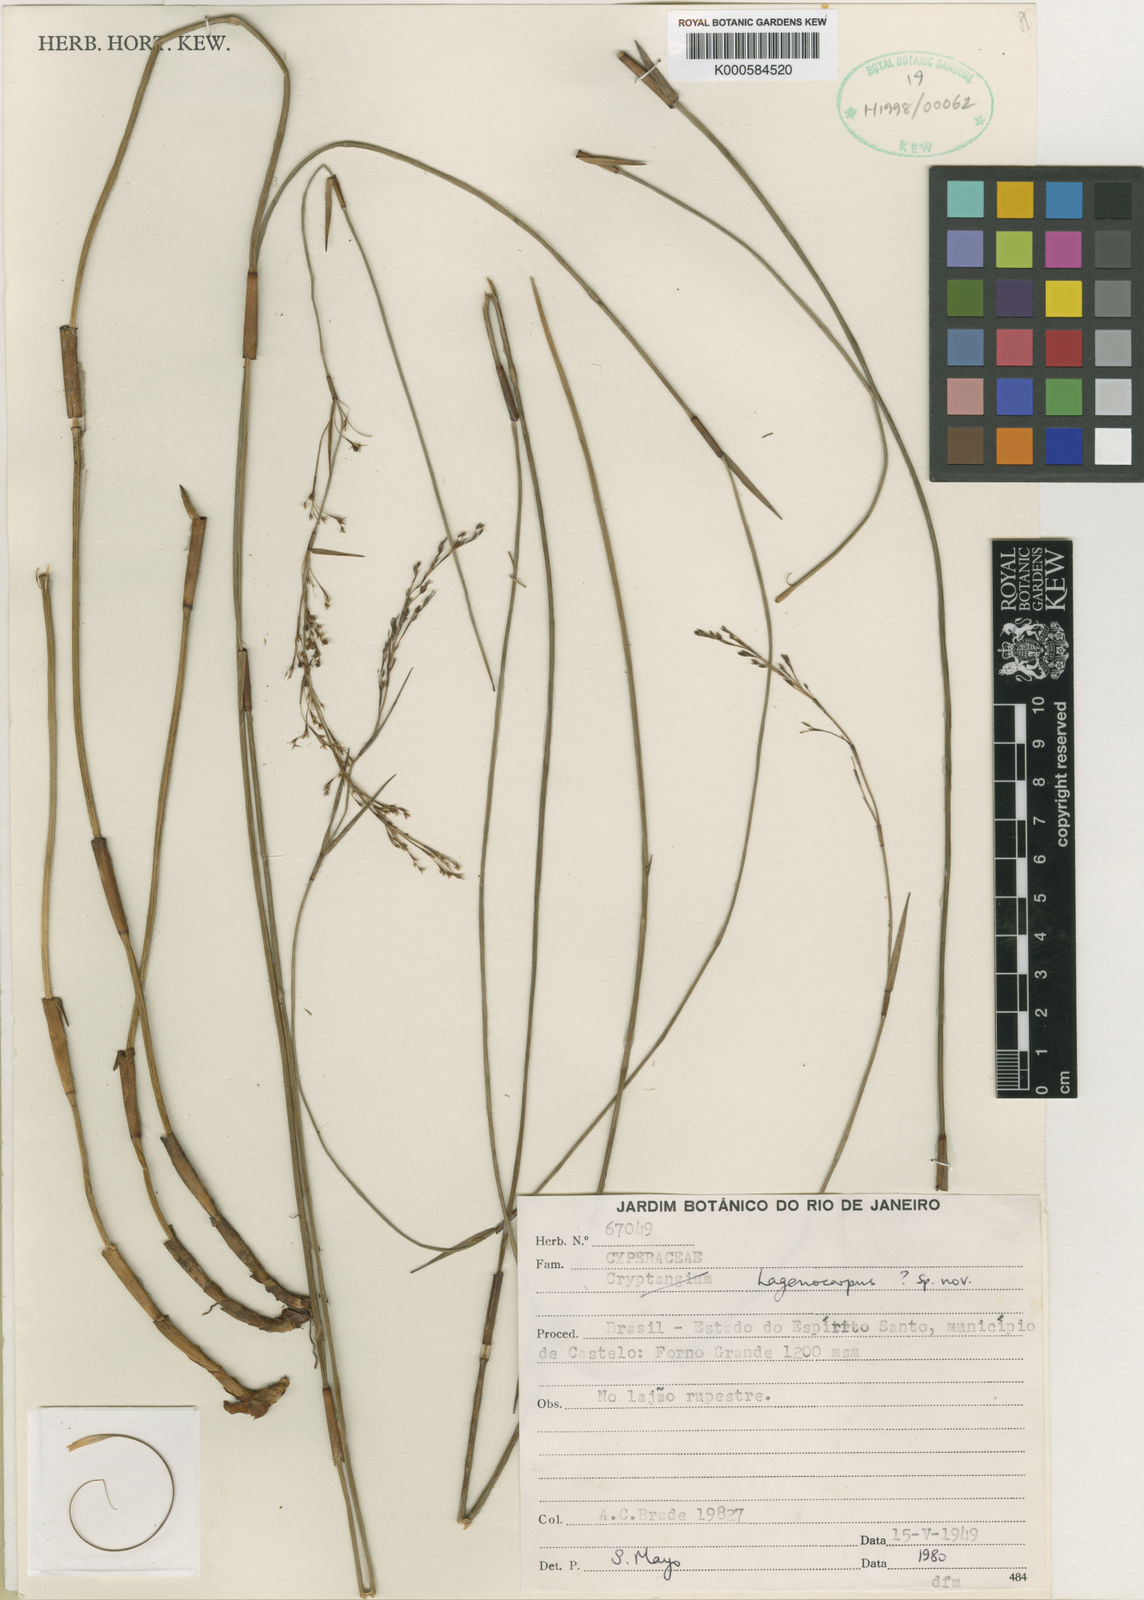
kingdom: Plantae
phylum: Tracheophyta
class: Liliopsida
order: Poales
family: Cyperaceae
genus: Krenakia
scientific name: Krenakia subaphylla
